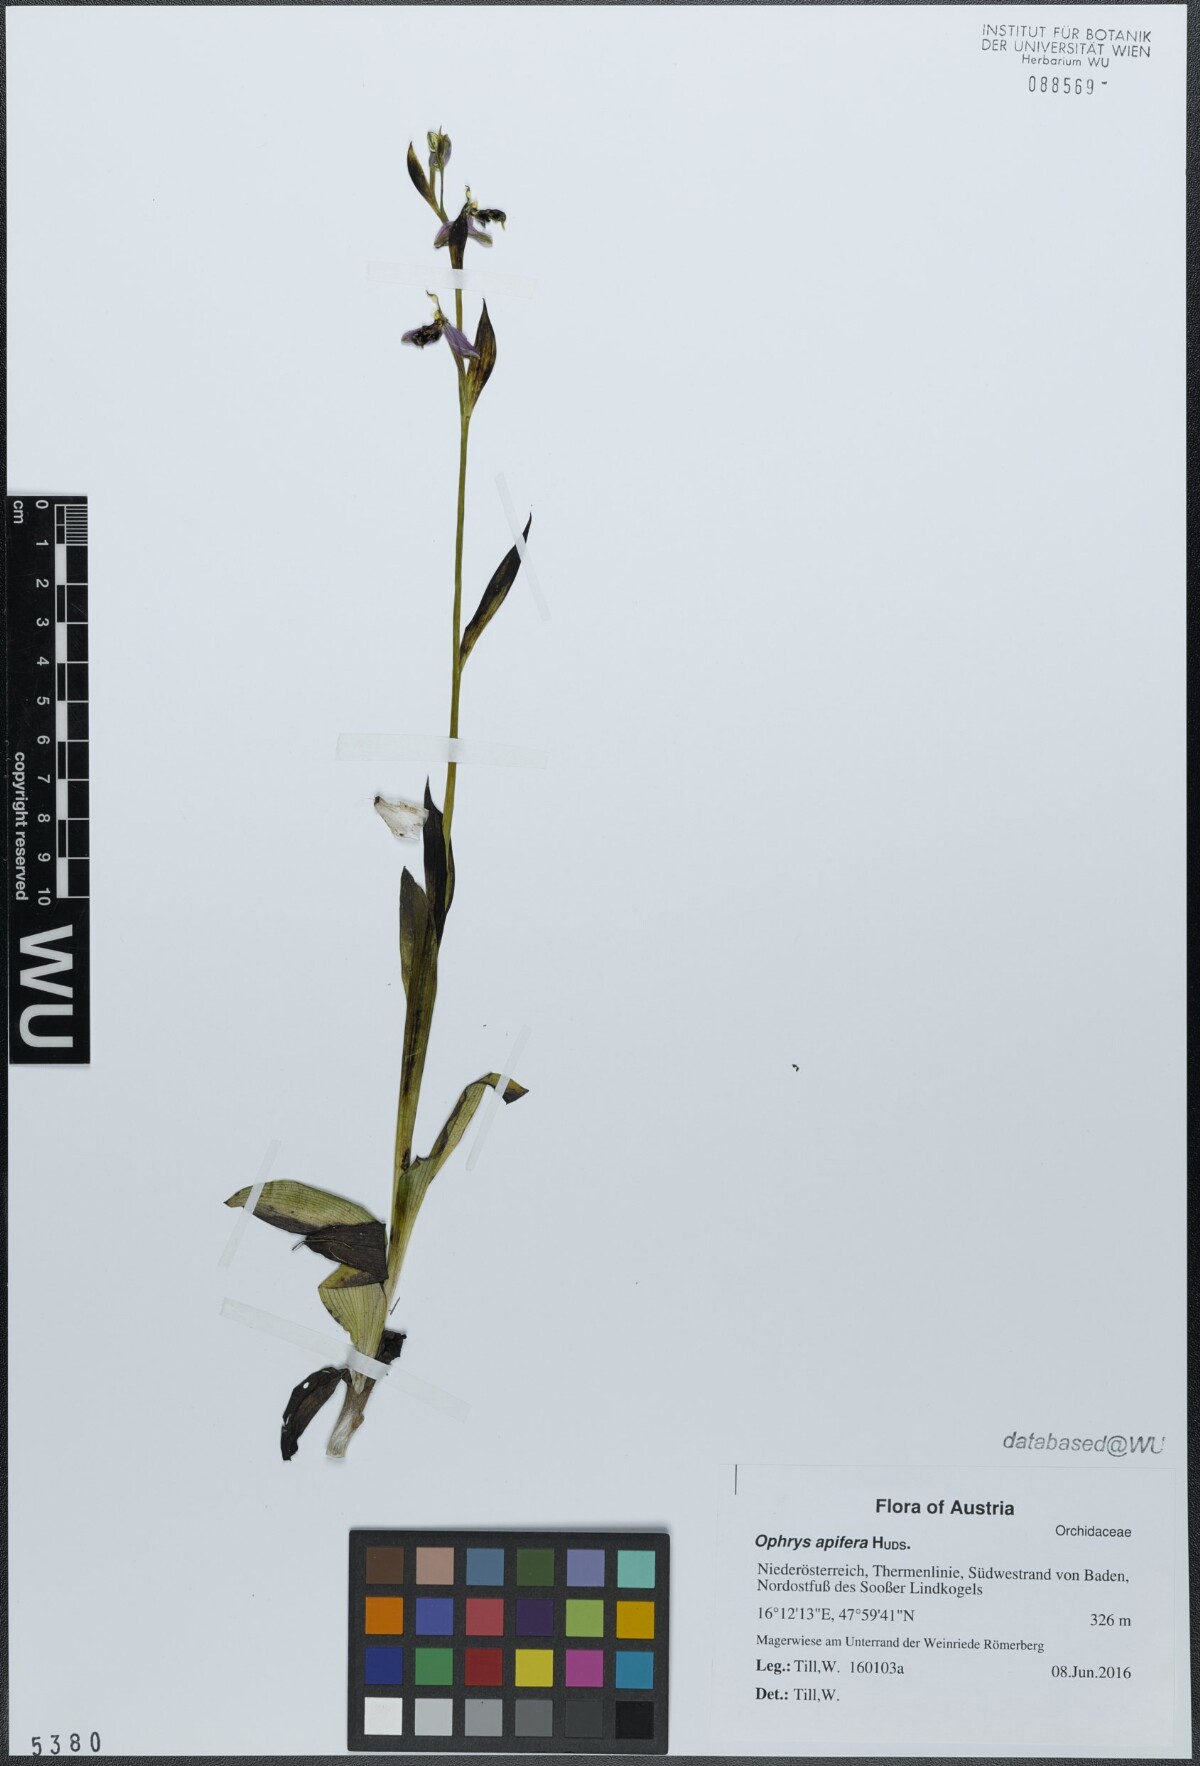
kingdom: Plantae
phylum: Tracheophyta
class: Liliopsida
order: Asparagales
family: Orchidaceae
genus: Ophrys
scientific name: Ophrys apifera
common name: Bee orchid
